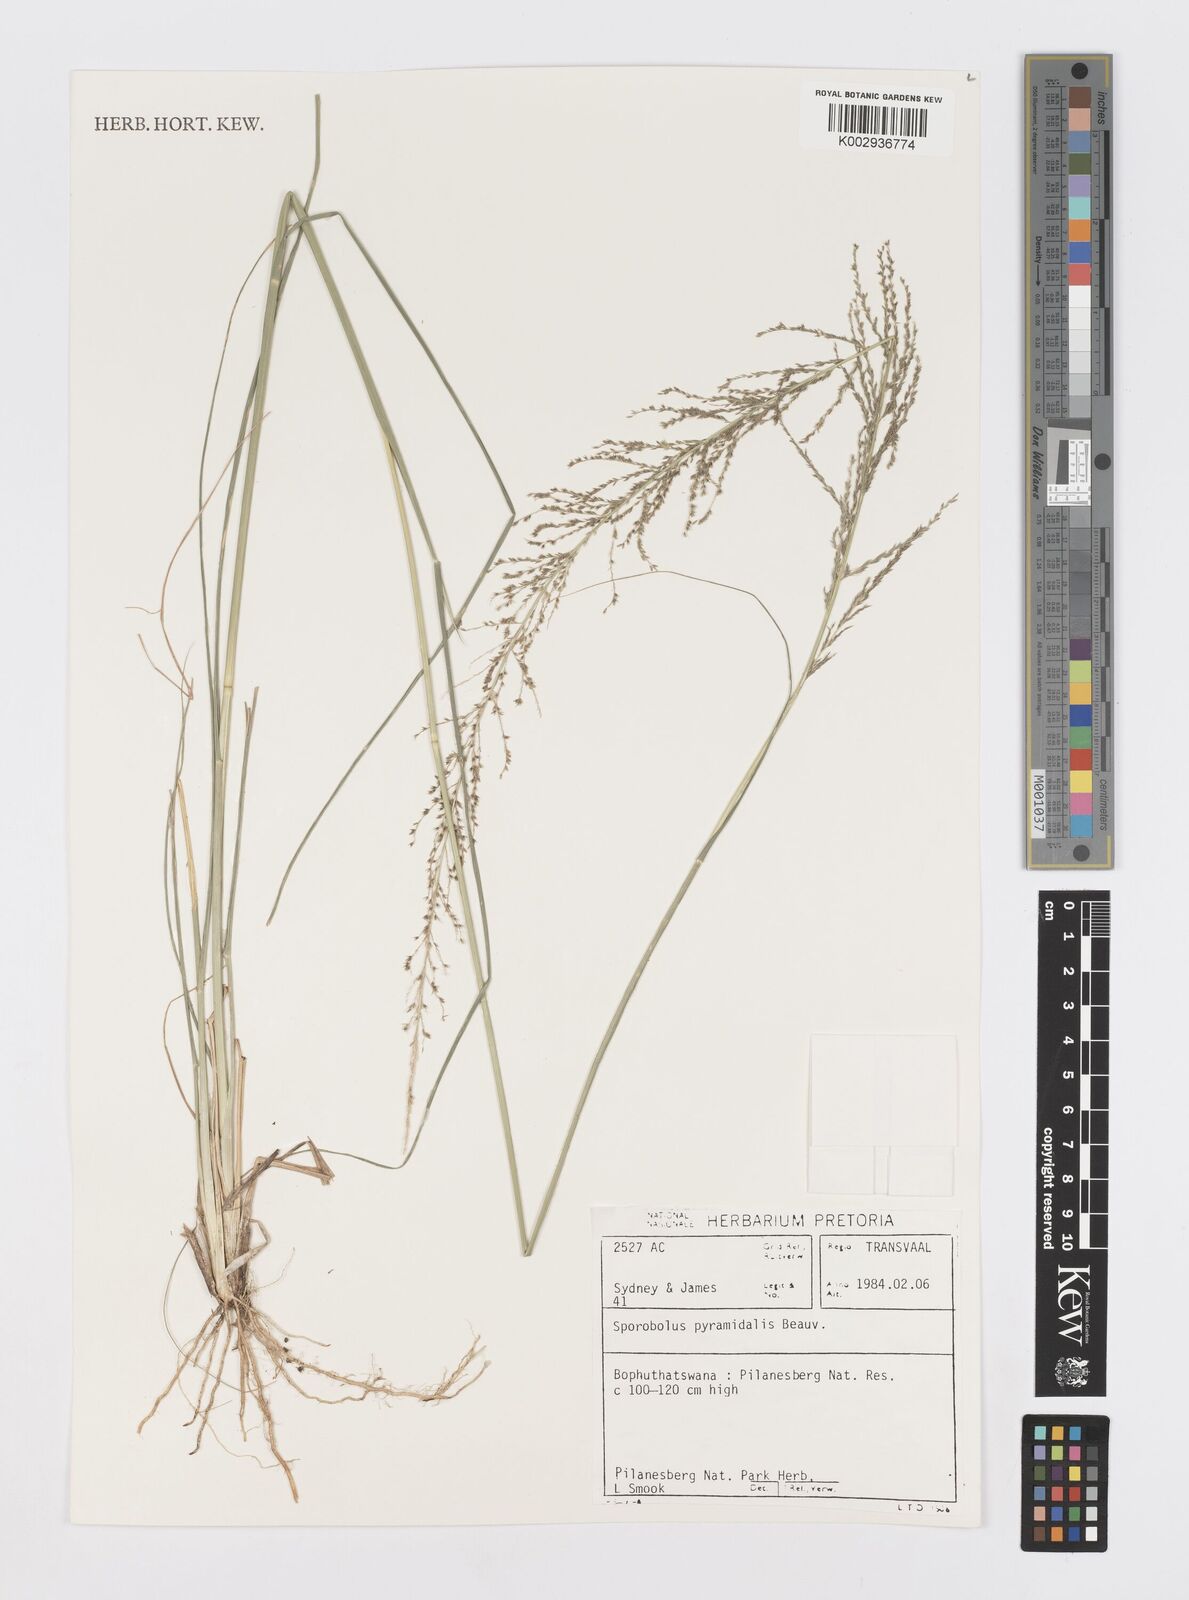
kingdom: Plantae
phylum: Tracheophyta
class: Liliopsida
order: Poales
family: Poaceae
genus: Sporobolus
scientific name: Sporobolus pyramidalis
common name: West indian dropseed
